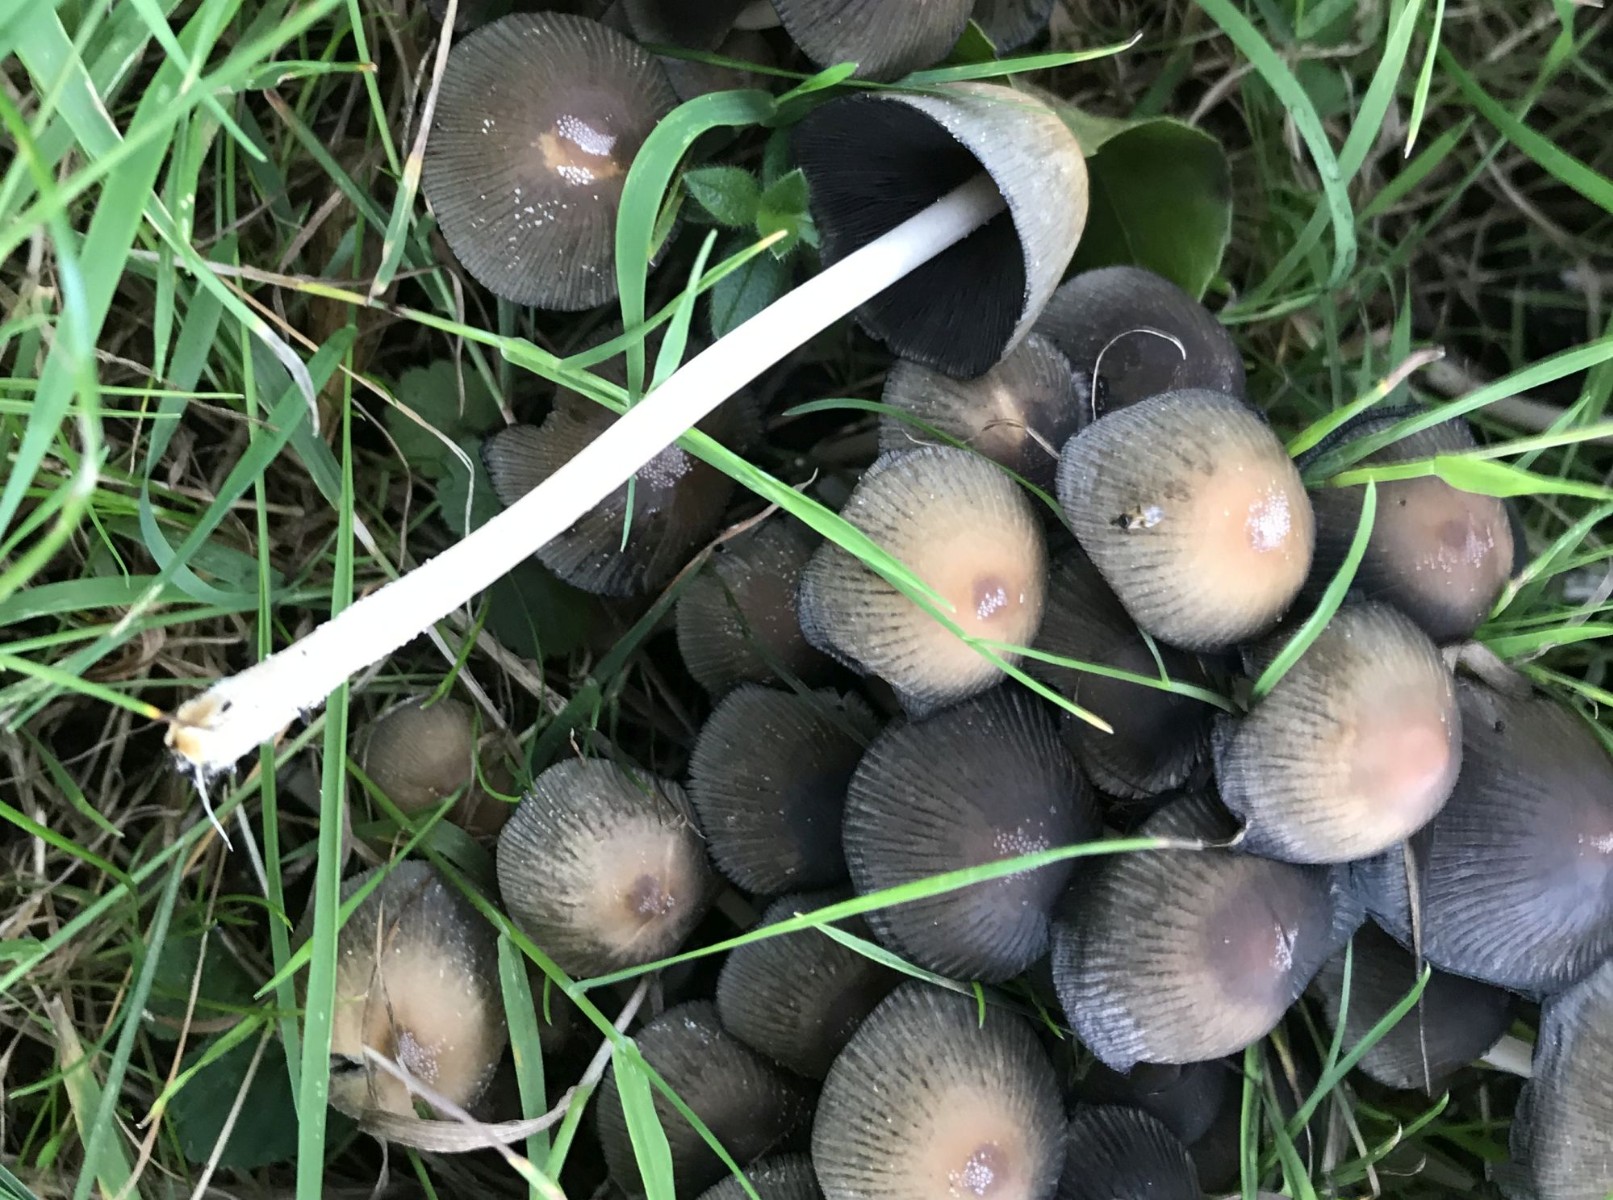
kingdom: Fungi
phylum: Basidiomycota
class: Agaricomycetes
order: Agaricales
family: Psathyrellaceae
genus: Coprinellus
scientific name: Coprinellus micaceus
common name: glimmer-blækhat
